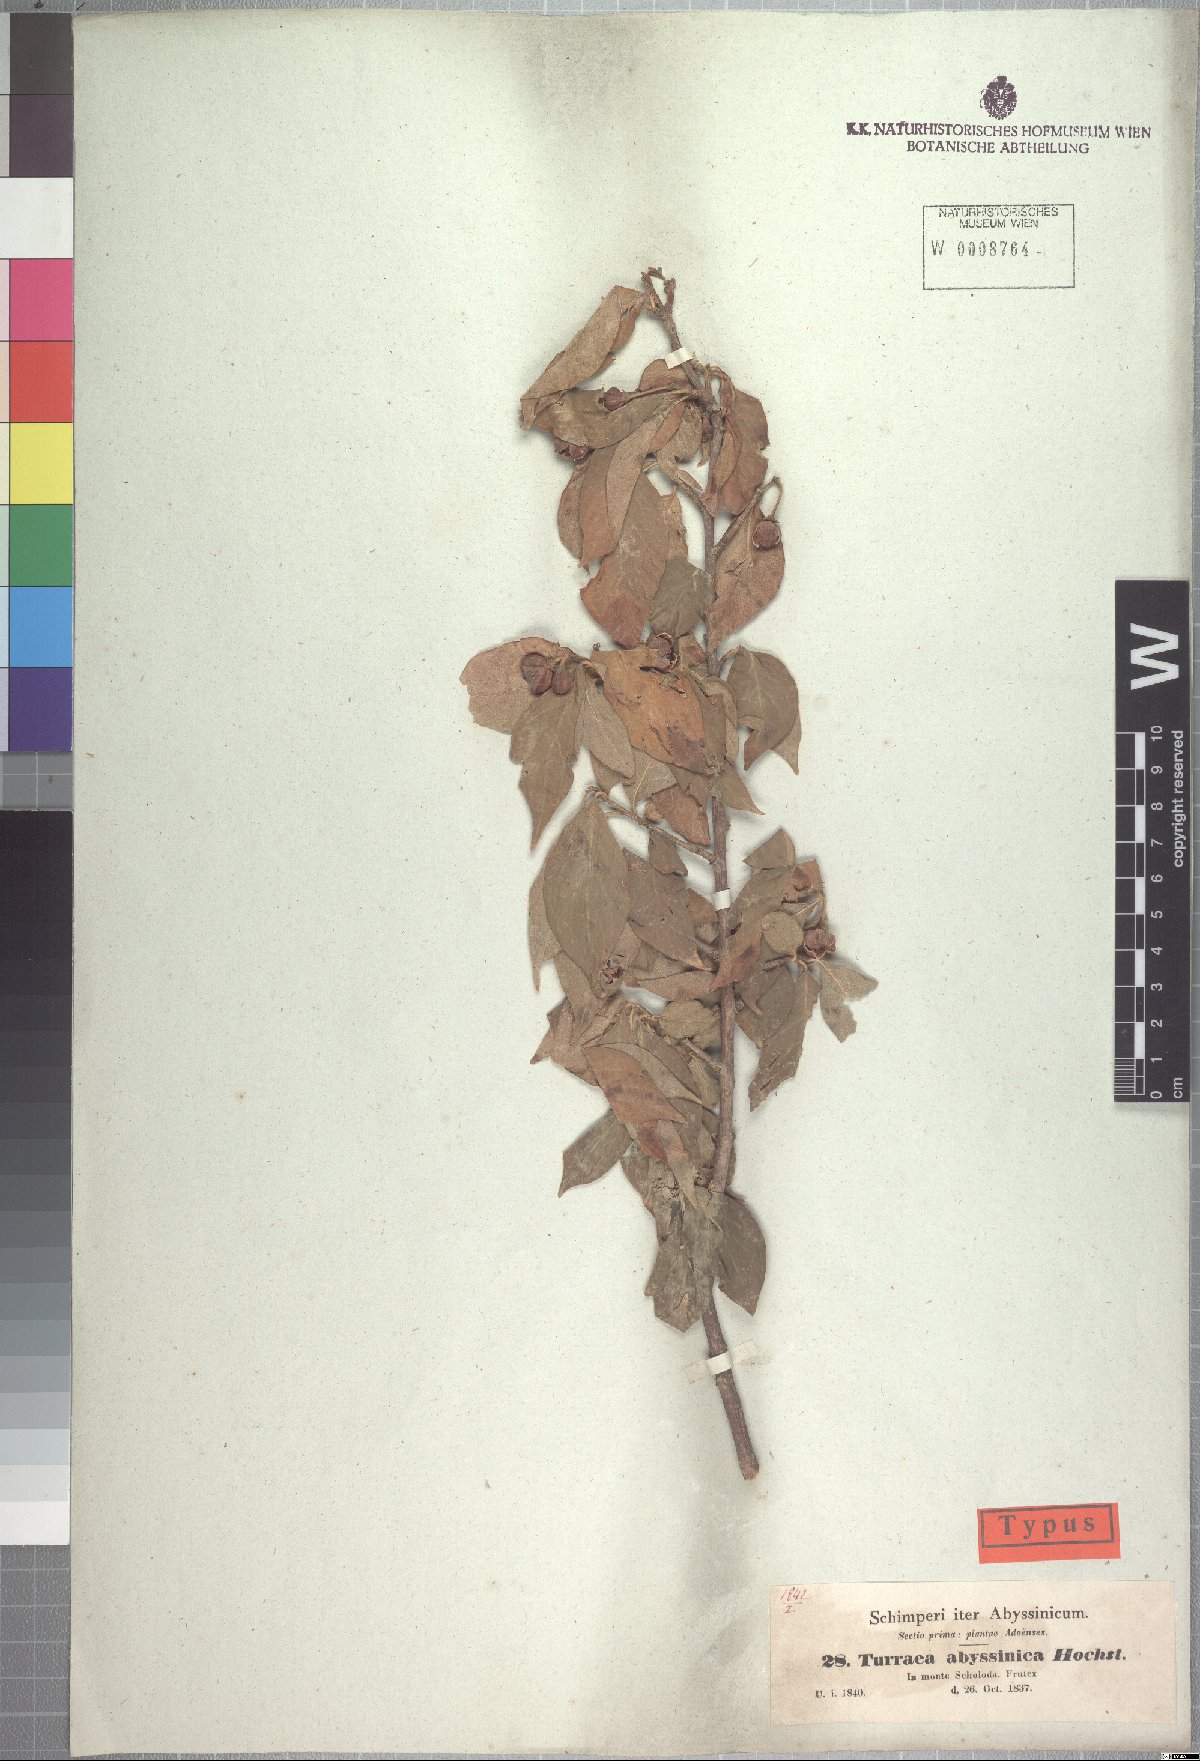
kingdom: Plantae
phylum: Tracheophyta
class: Magnoliopsida
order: Sapindales
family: Meliaceae
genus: Turraea
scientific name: Turraea abyssinica
